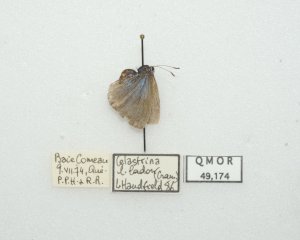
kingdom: Animalia
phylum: Arthropoda
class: Insecta
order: Lepidoptera
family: Lycaenidae
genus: Celastrina
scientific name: Celastrina lucia
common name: Northern Spring Azure
